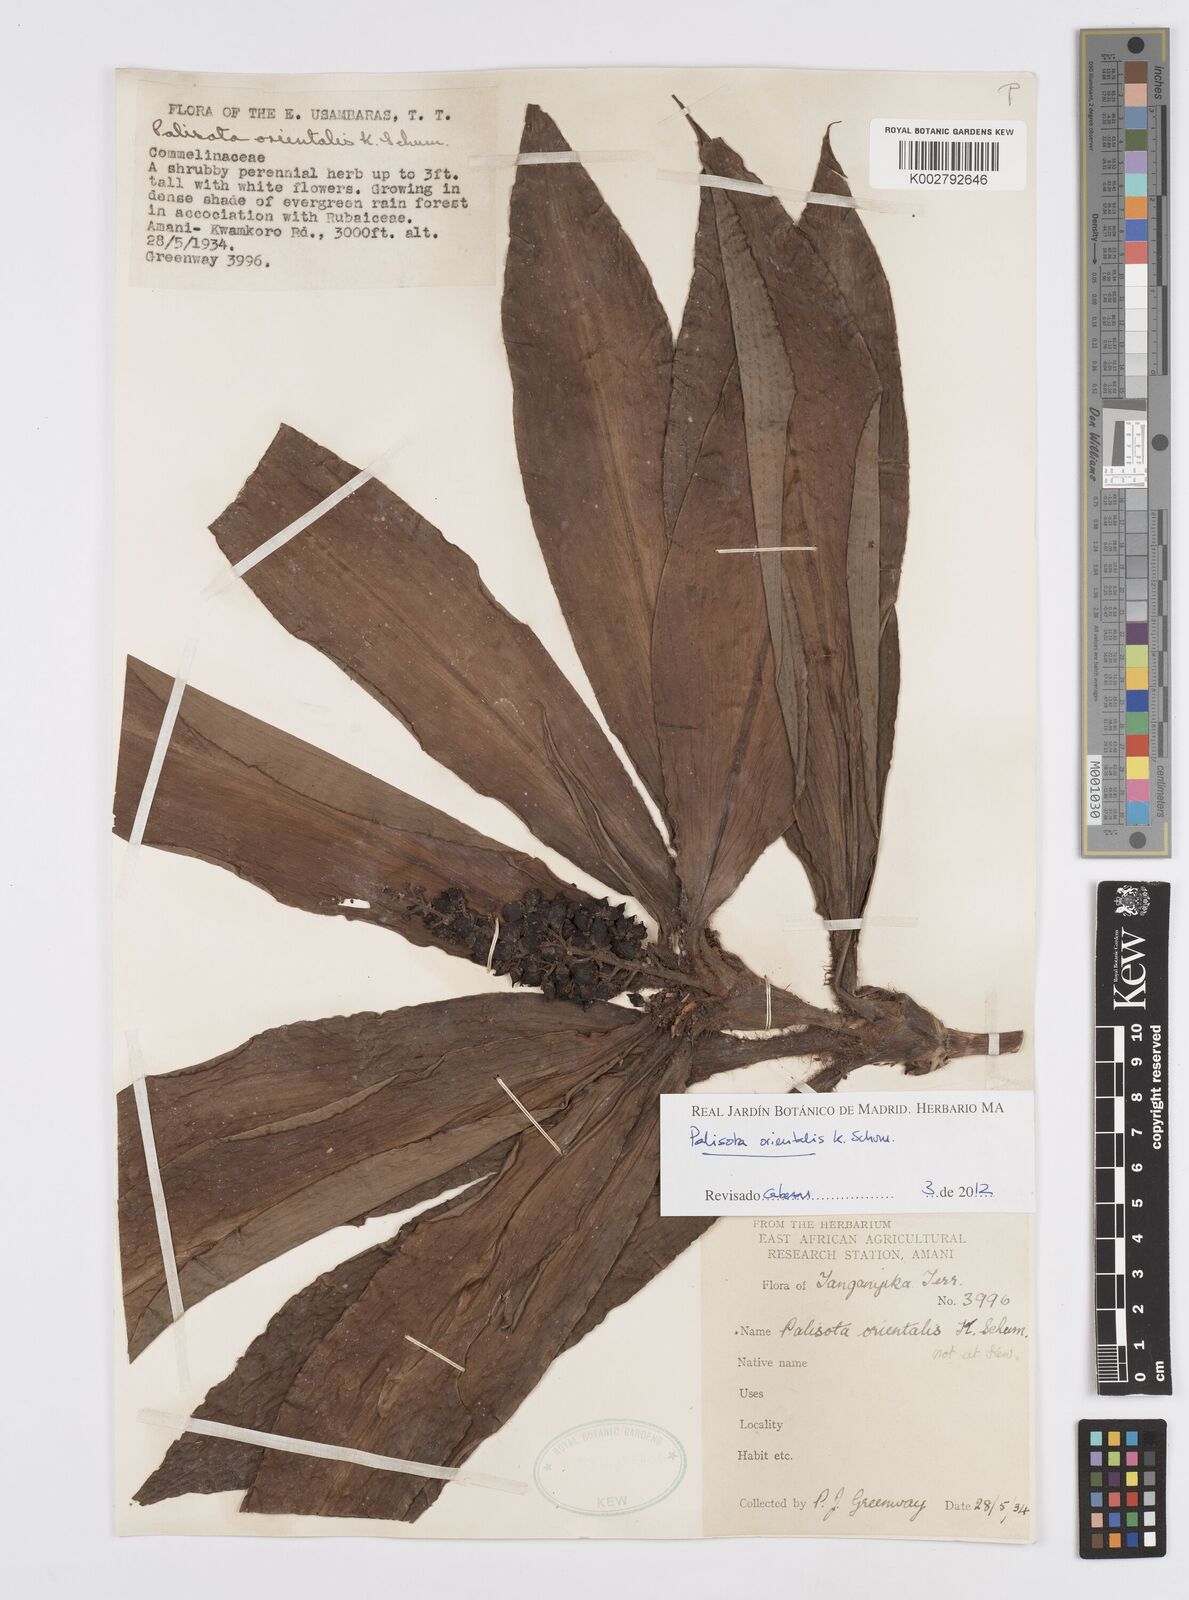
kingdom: Plantae
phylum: Tracheophyta
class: Liliopsida
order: Commelinales
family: Commelinaceae
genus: Palisota
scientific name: Palisota orientalis
